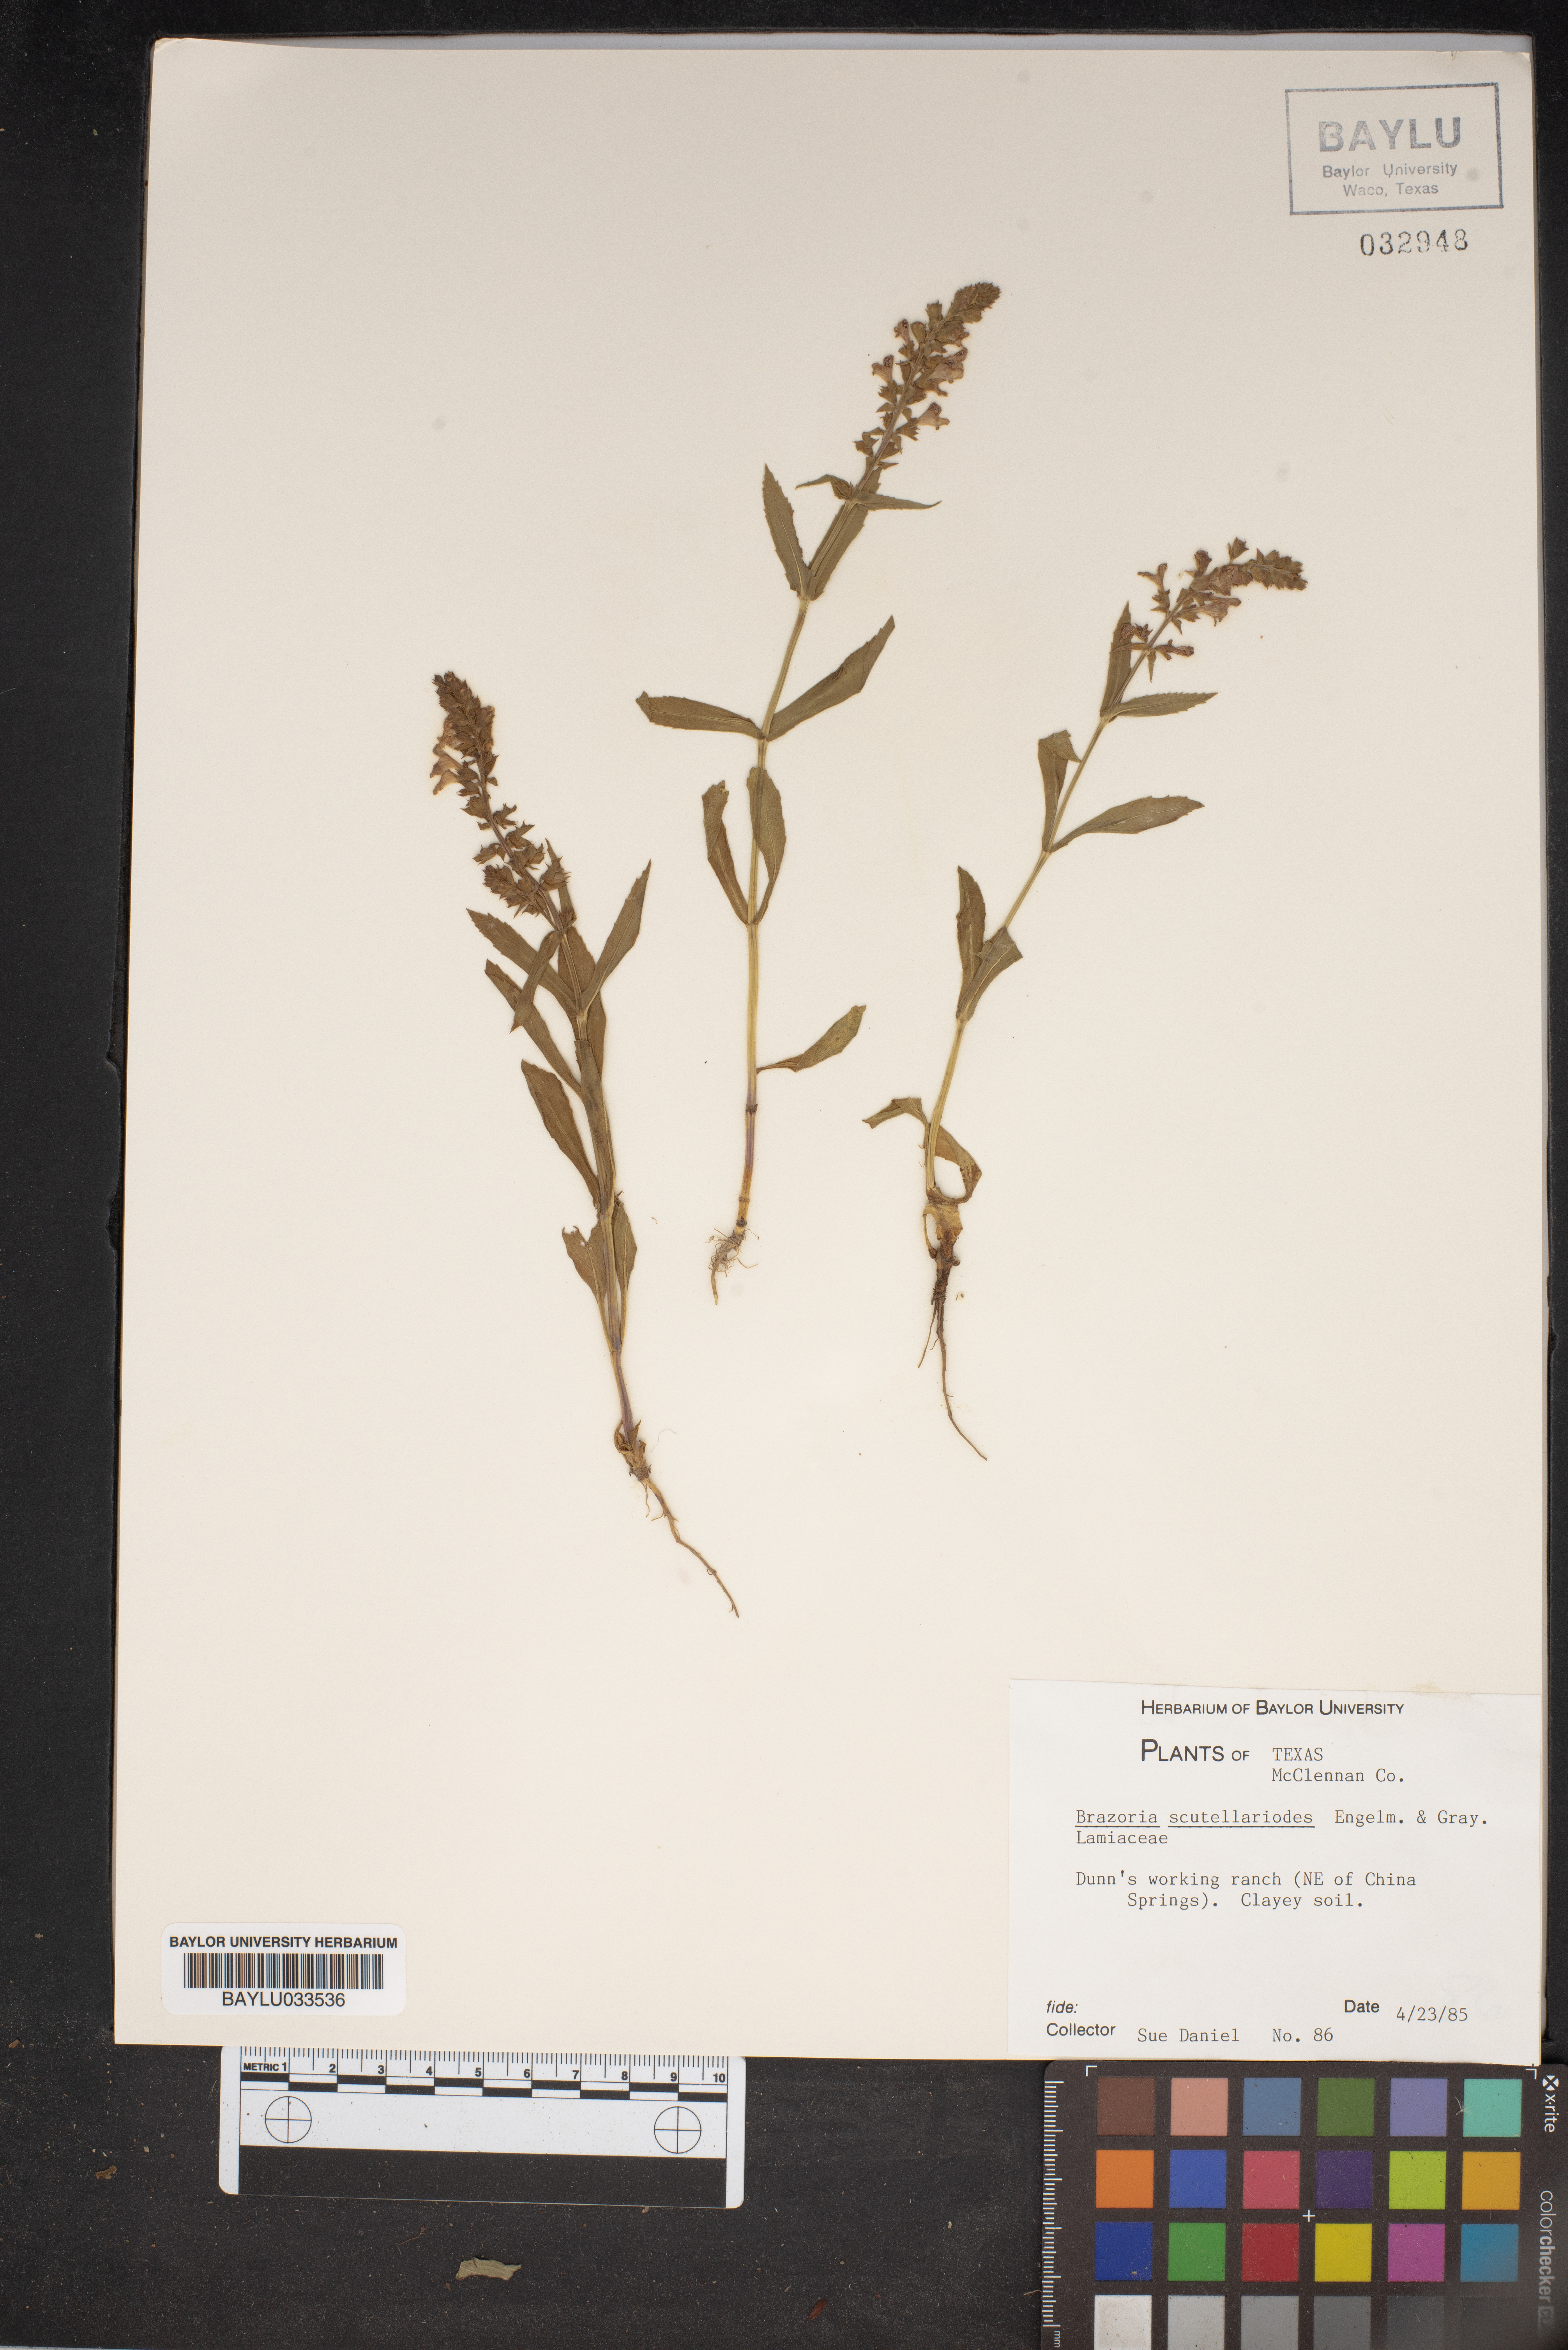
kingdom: Plantae
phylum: Tracheophyta
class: Magnoliopsida
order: Lamiales
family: Lamiaceae
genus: Warnockia
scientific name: Warnockia scutellarioides
